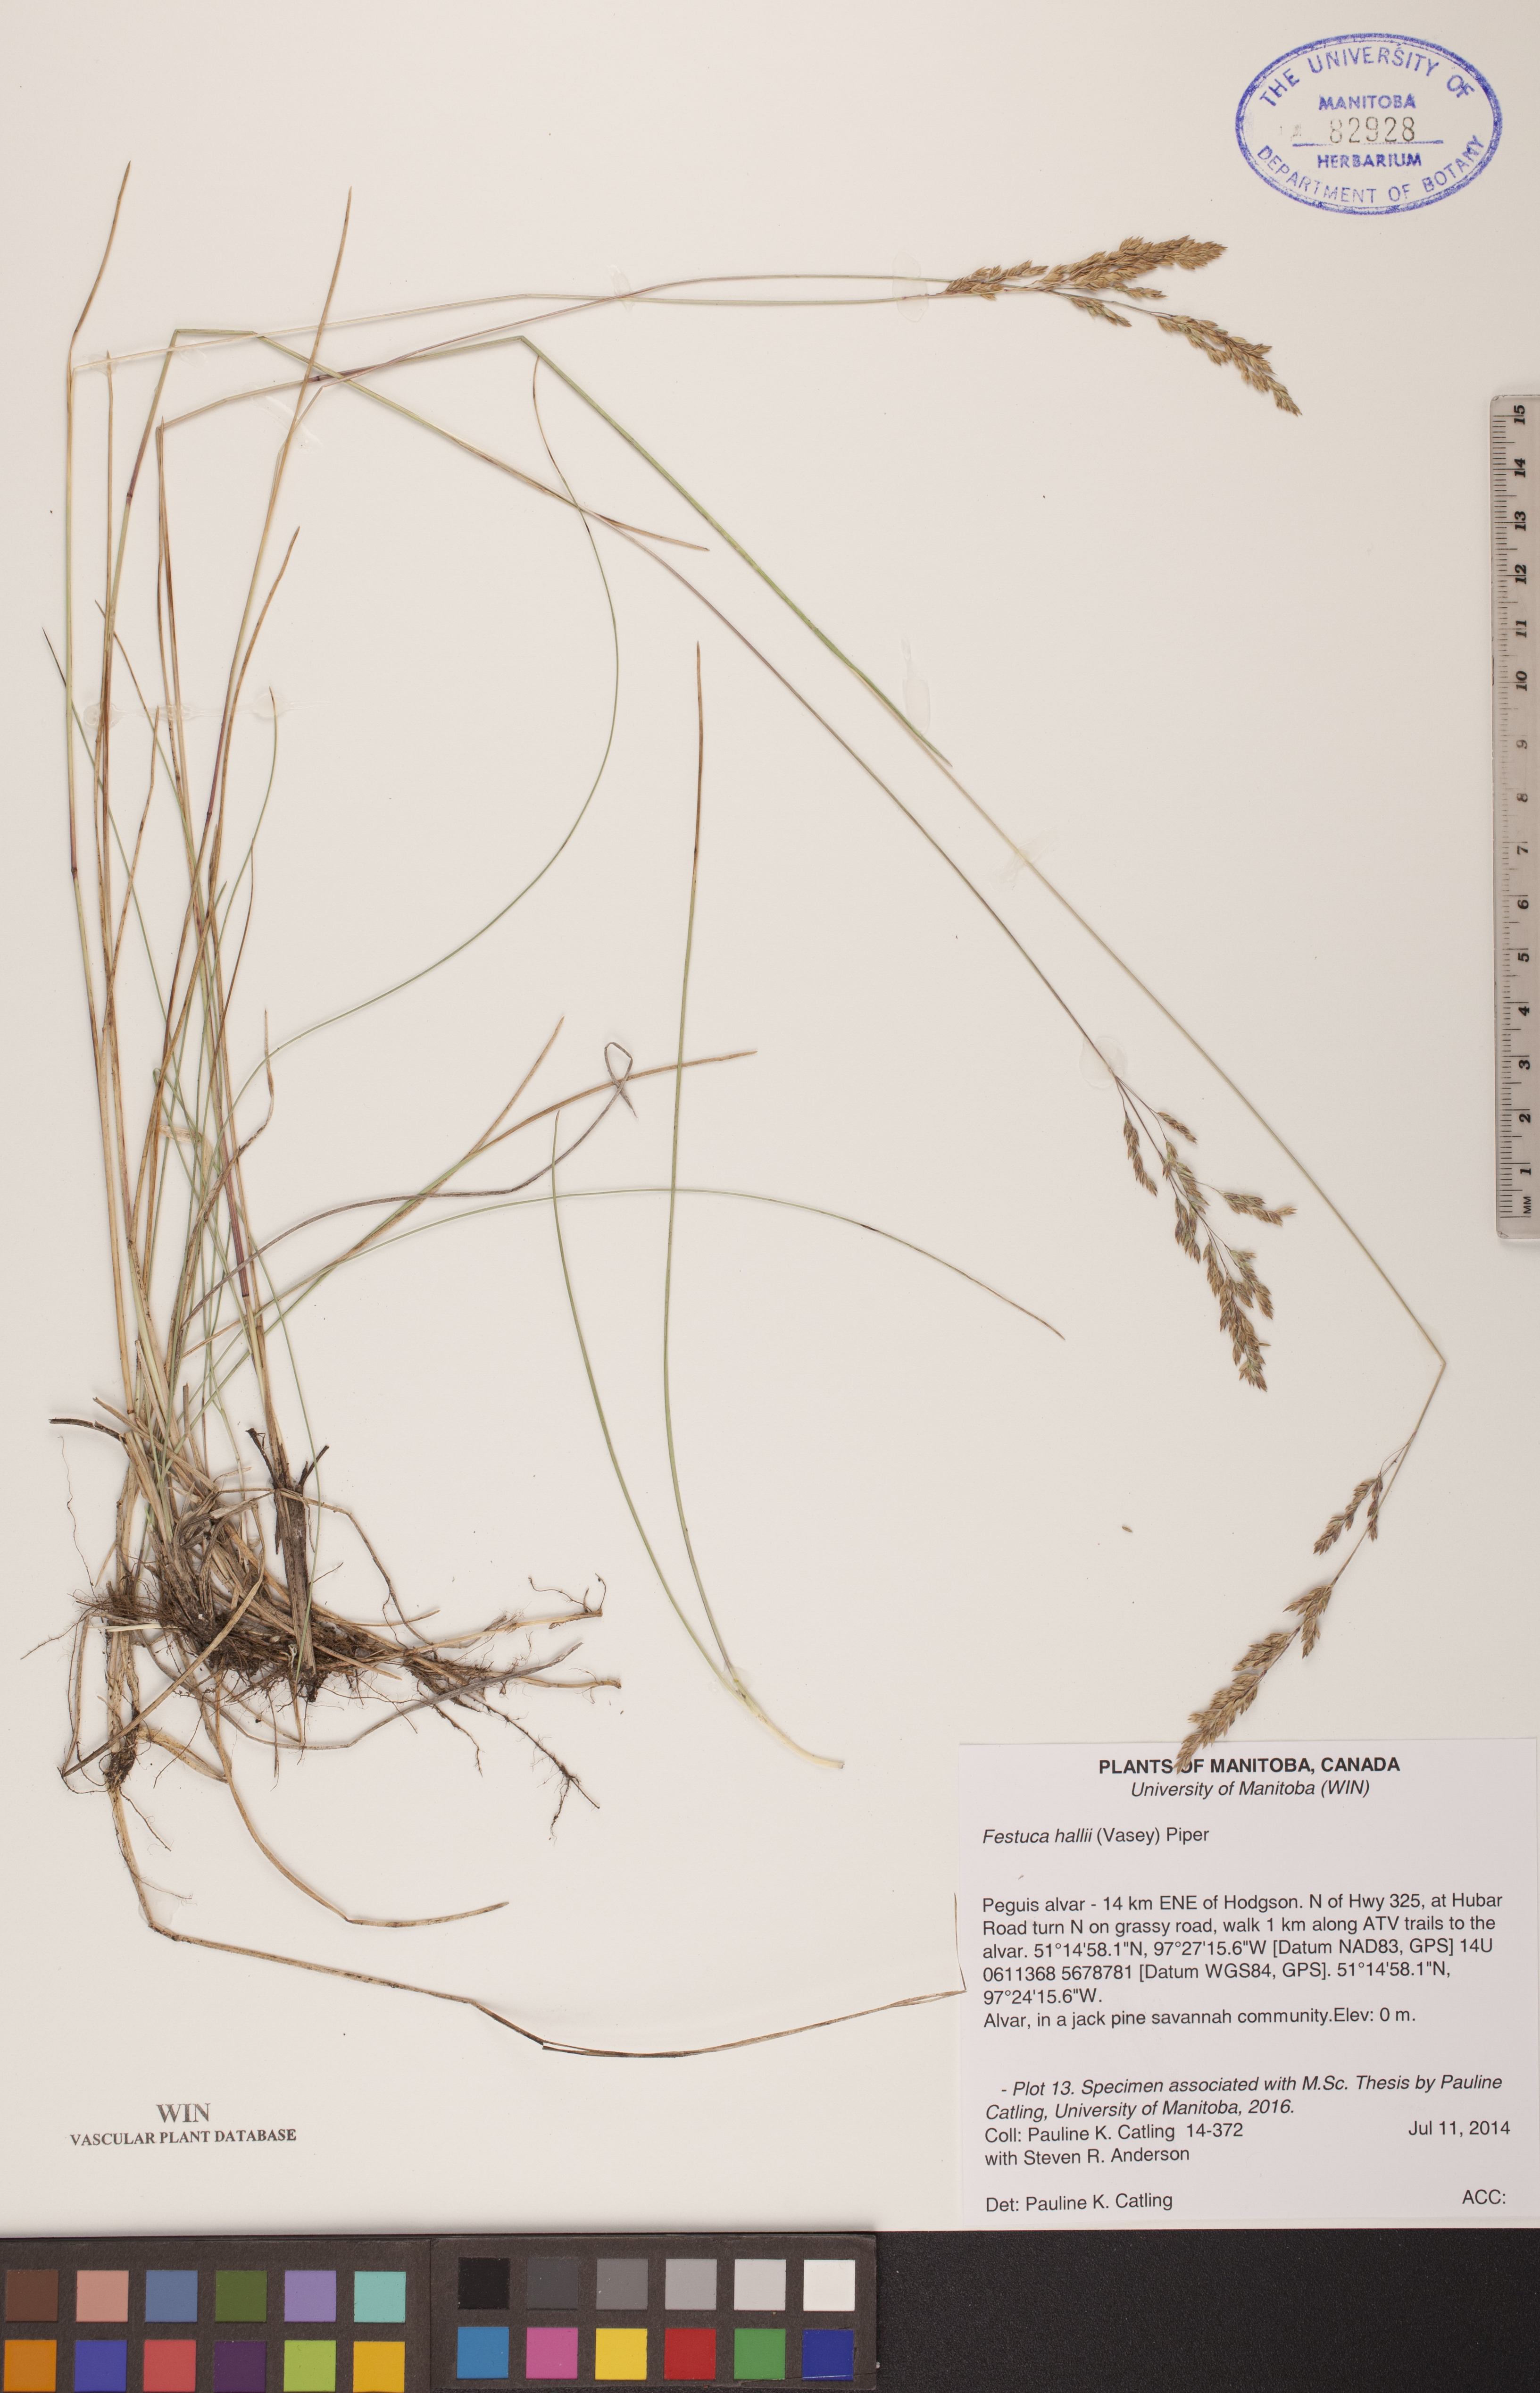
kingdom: Plantae
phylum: Tracheophyta
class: Liliopsida
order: Poales
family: Poaceae
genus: Festuca
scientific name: Festuca hallii
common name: Hall's fescue
